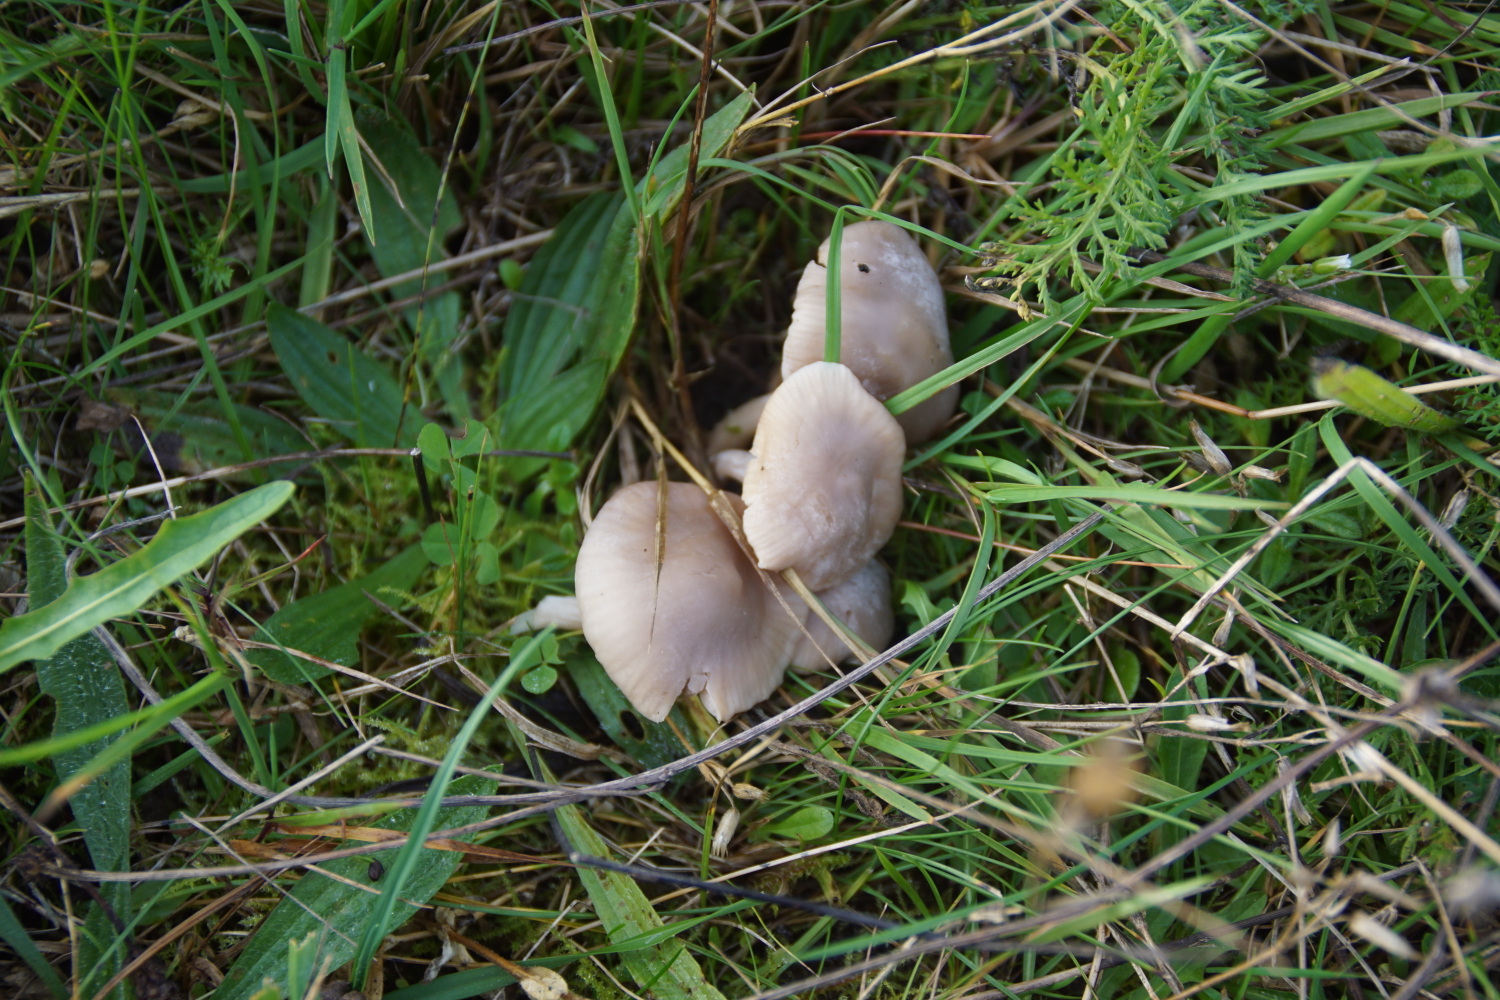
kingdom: Fungi
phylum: Basidiomycota
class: Agaricomycetes
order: Agaricales
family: Hygrophoraceae
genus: Cuphophyllus
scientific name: Cuphophyllus
